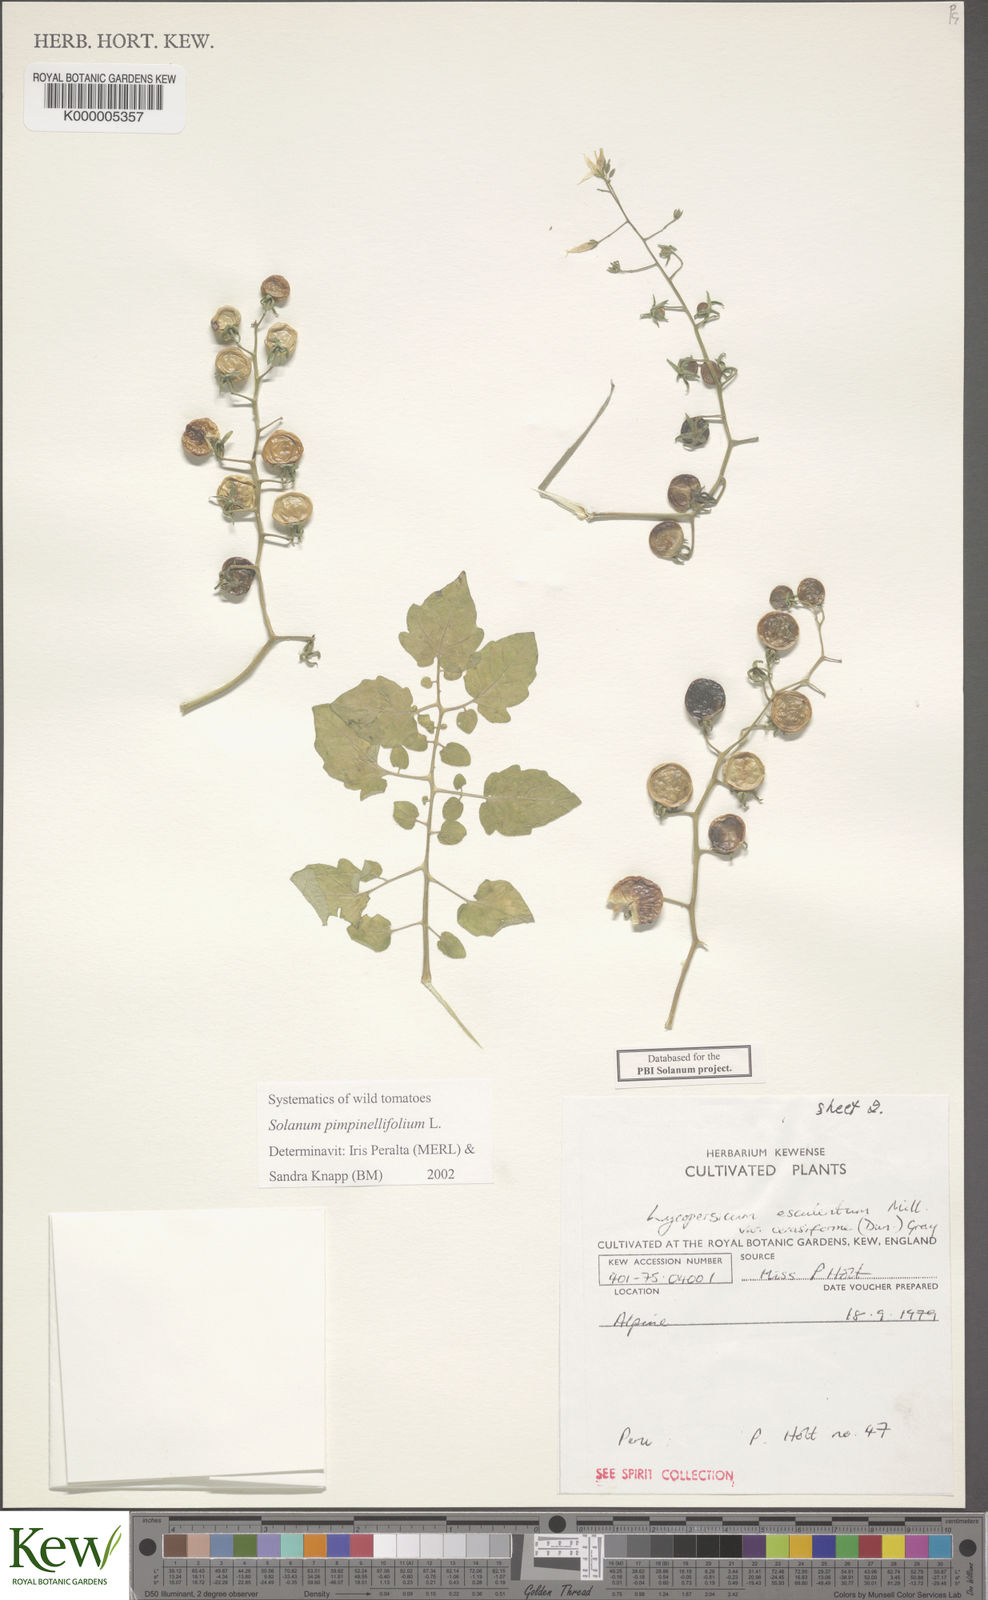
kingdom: Plantae
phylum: Tracheophyta
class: Magnoliopsida
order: Solanales
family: Solanaceae
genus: Solanum
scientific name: Solanum pimpinellifolium
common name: Currant-tomato
